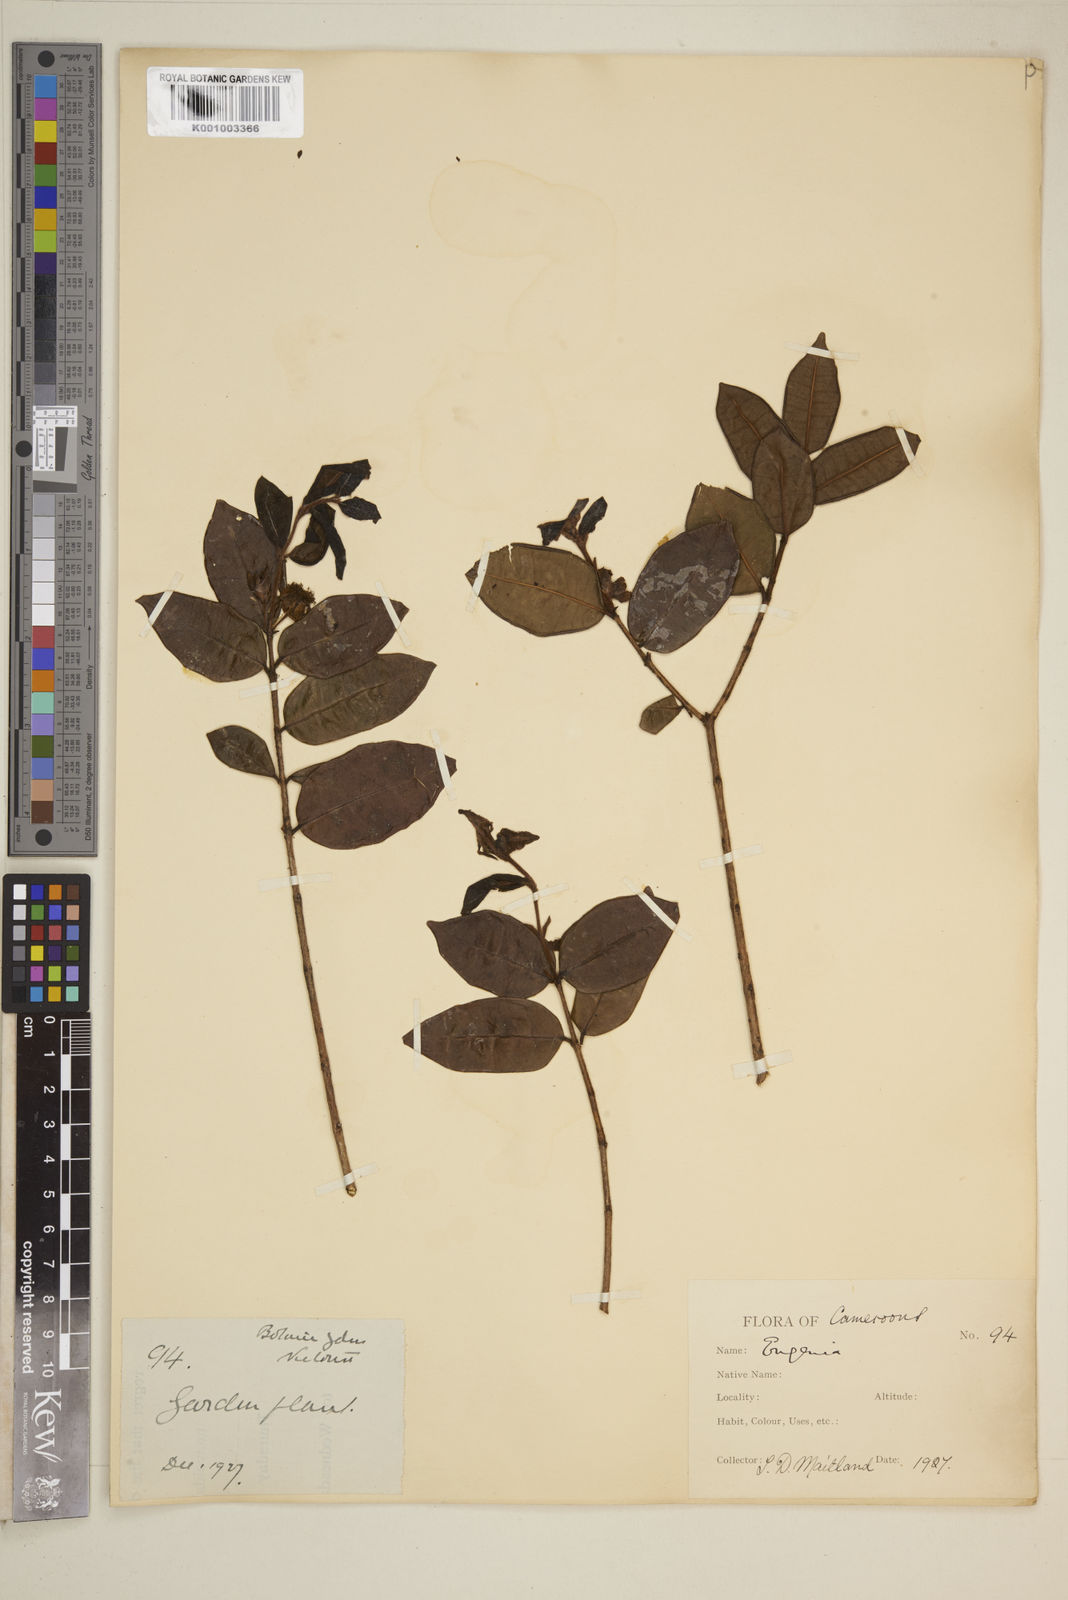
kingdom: Plantae
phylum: Tracheophyta
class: Magnoliopsida
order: Myrtales
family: Myrtaceae
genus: Eugenia
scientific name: Eugenia uniflora
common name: Surinam cherry
